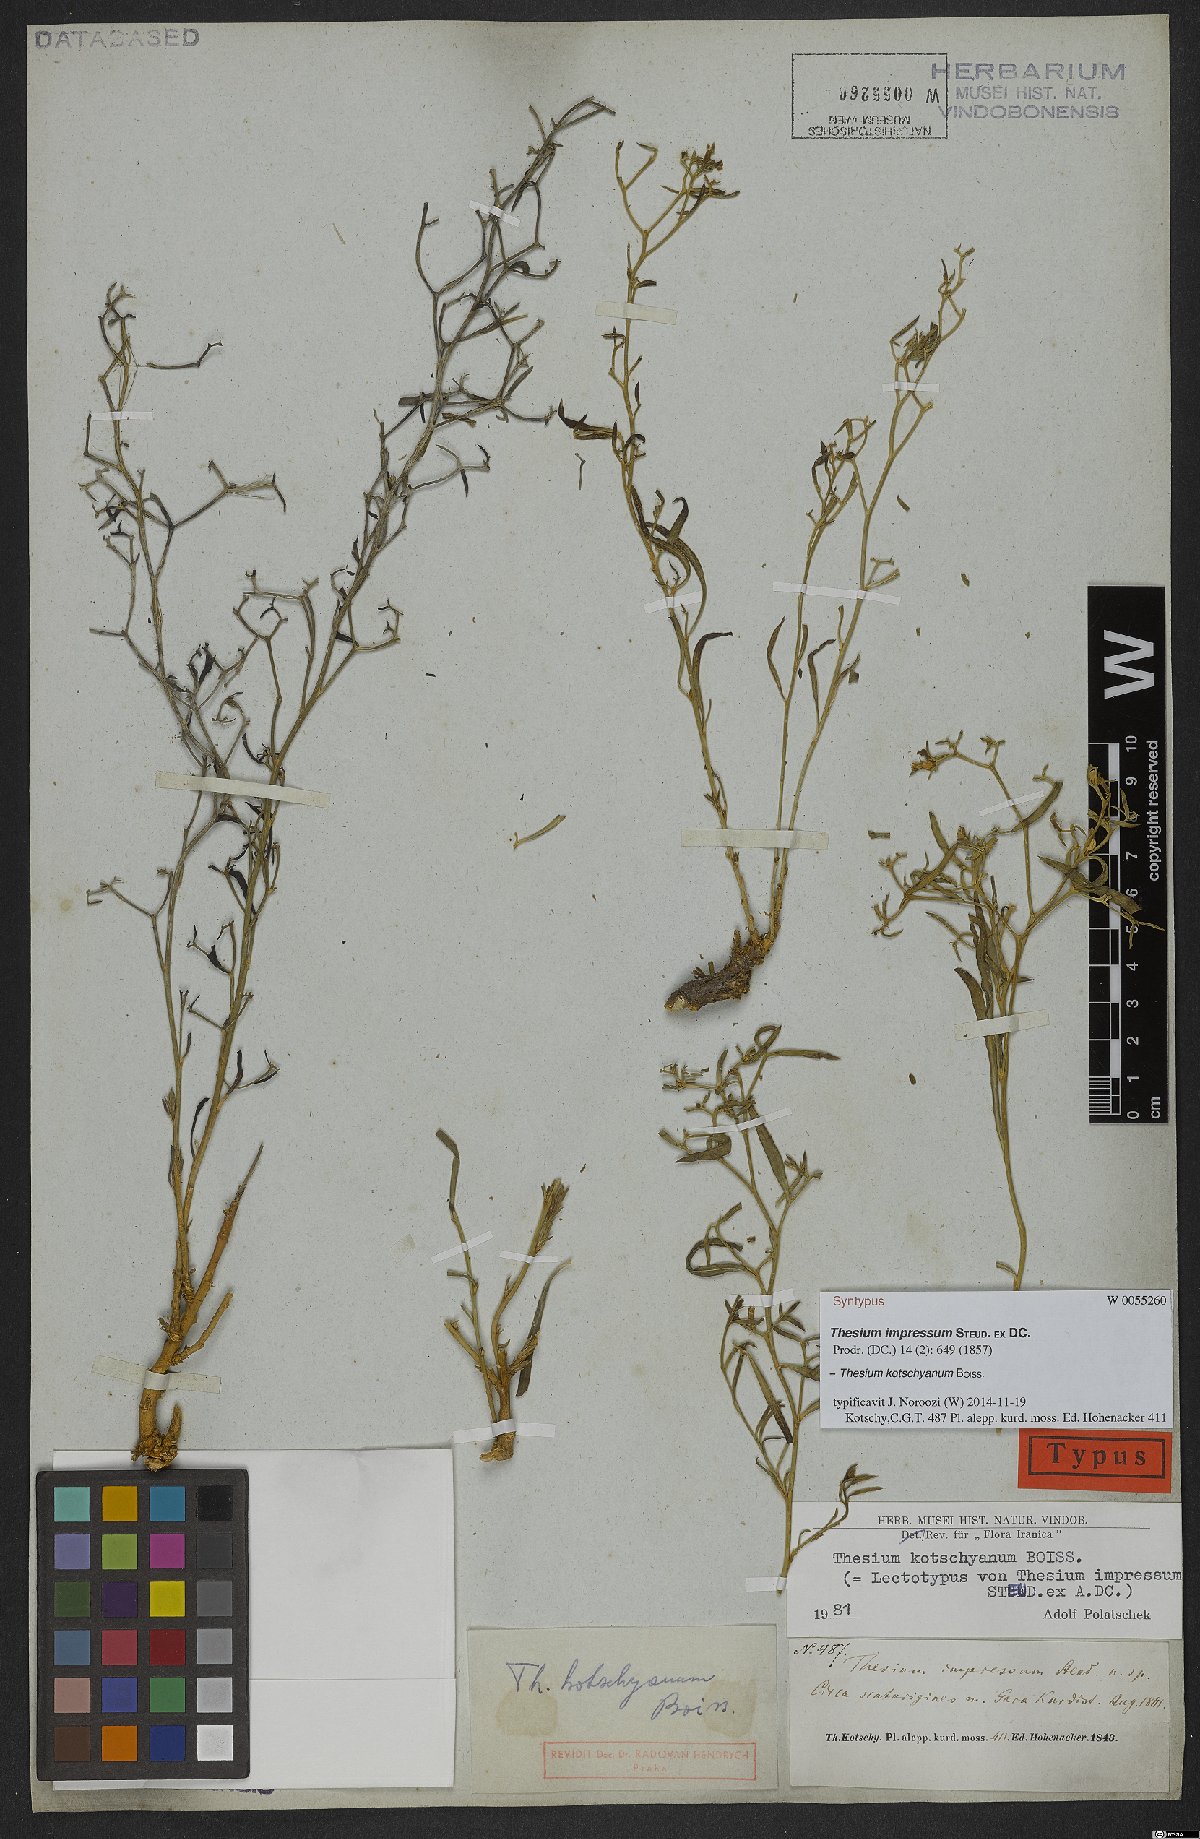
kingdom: Plantae
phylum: Tracheophyta
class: Magnoliopsida
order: Santalales
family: Thesiaceae
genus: Thesium
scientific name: Thesium kotschyanum
